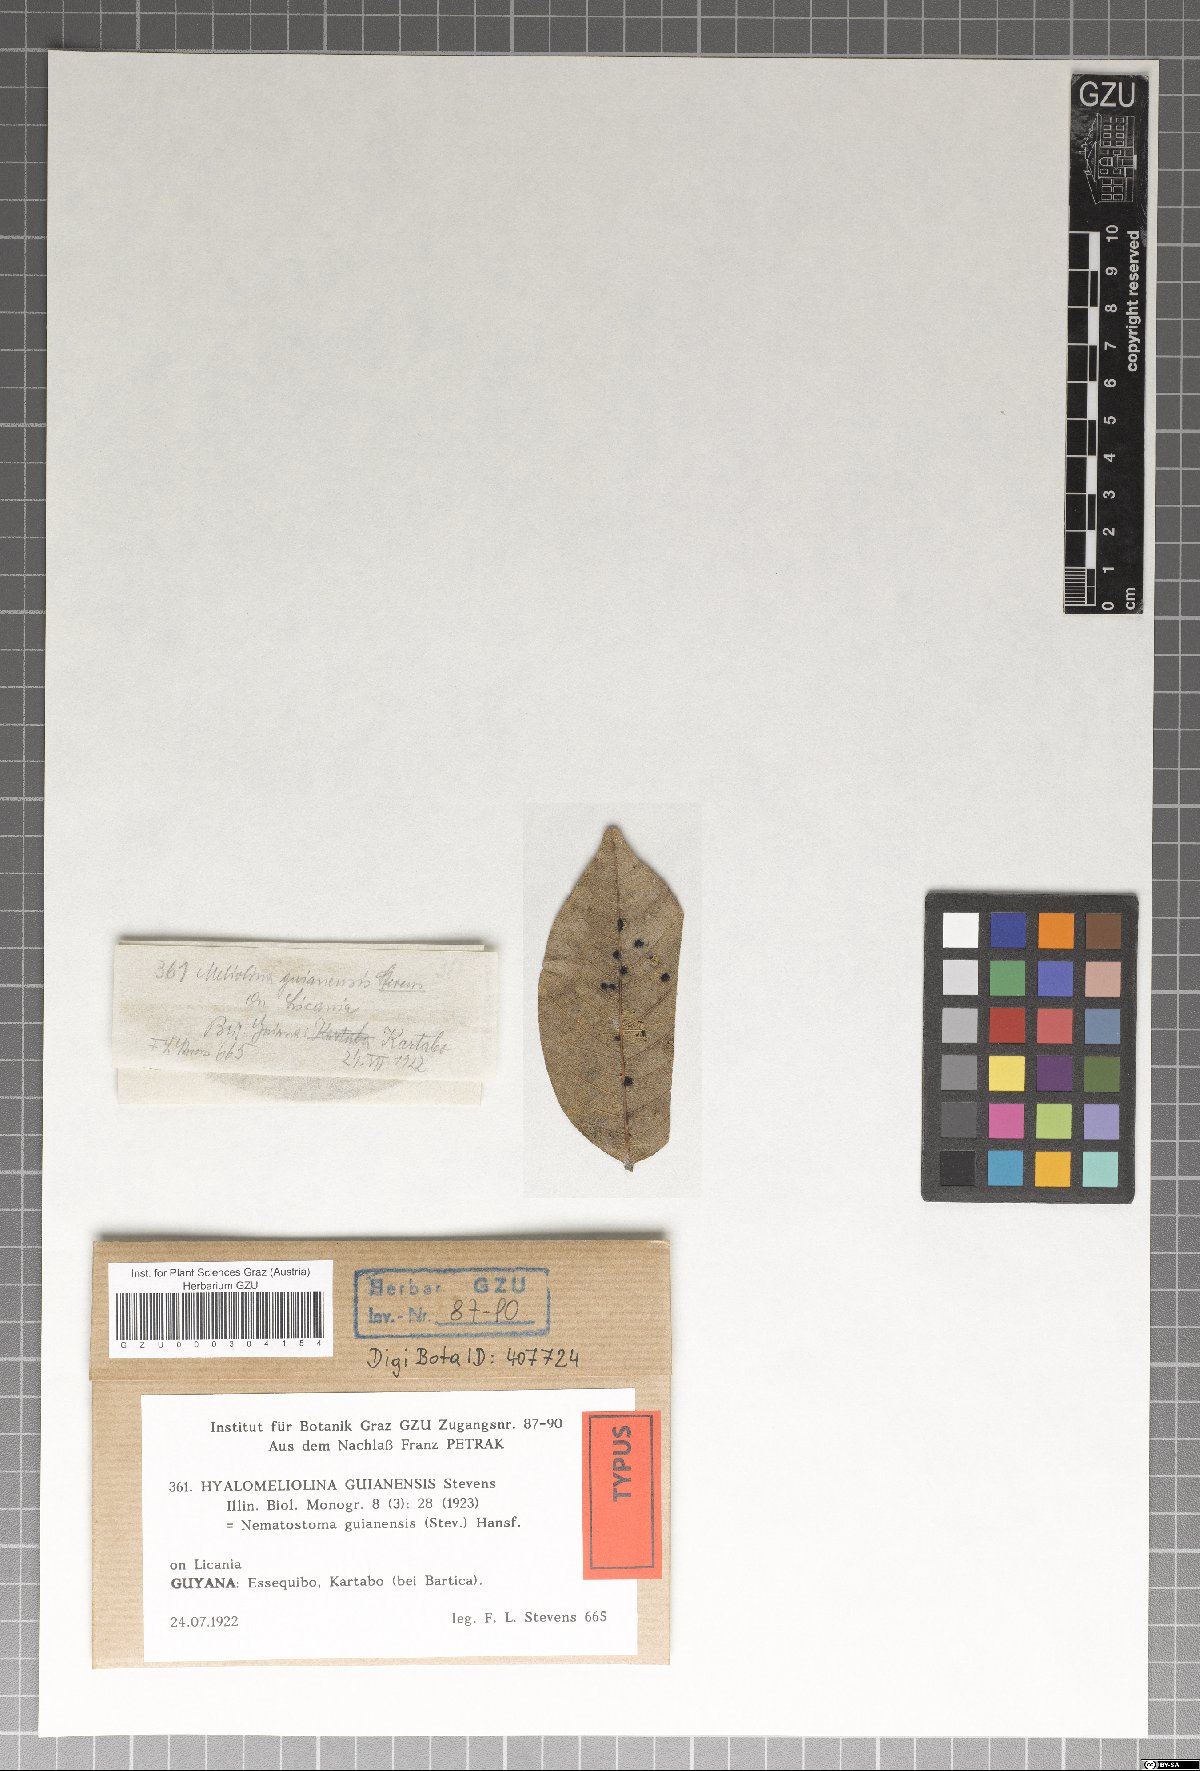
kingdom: Fungi
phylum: Ascomycota
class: Dothideomycetes
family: Hyalomeliolinaceae
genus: Hyalomeliolina
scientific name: Hyalomeliolina guianensis
